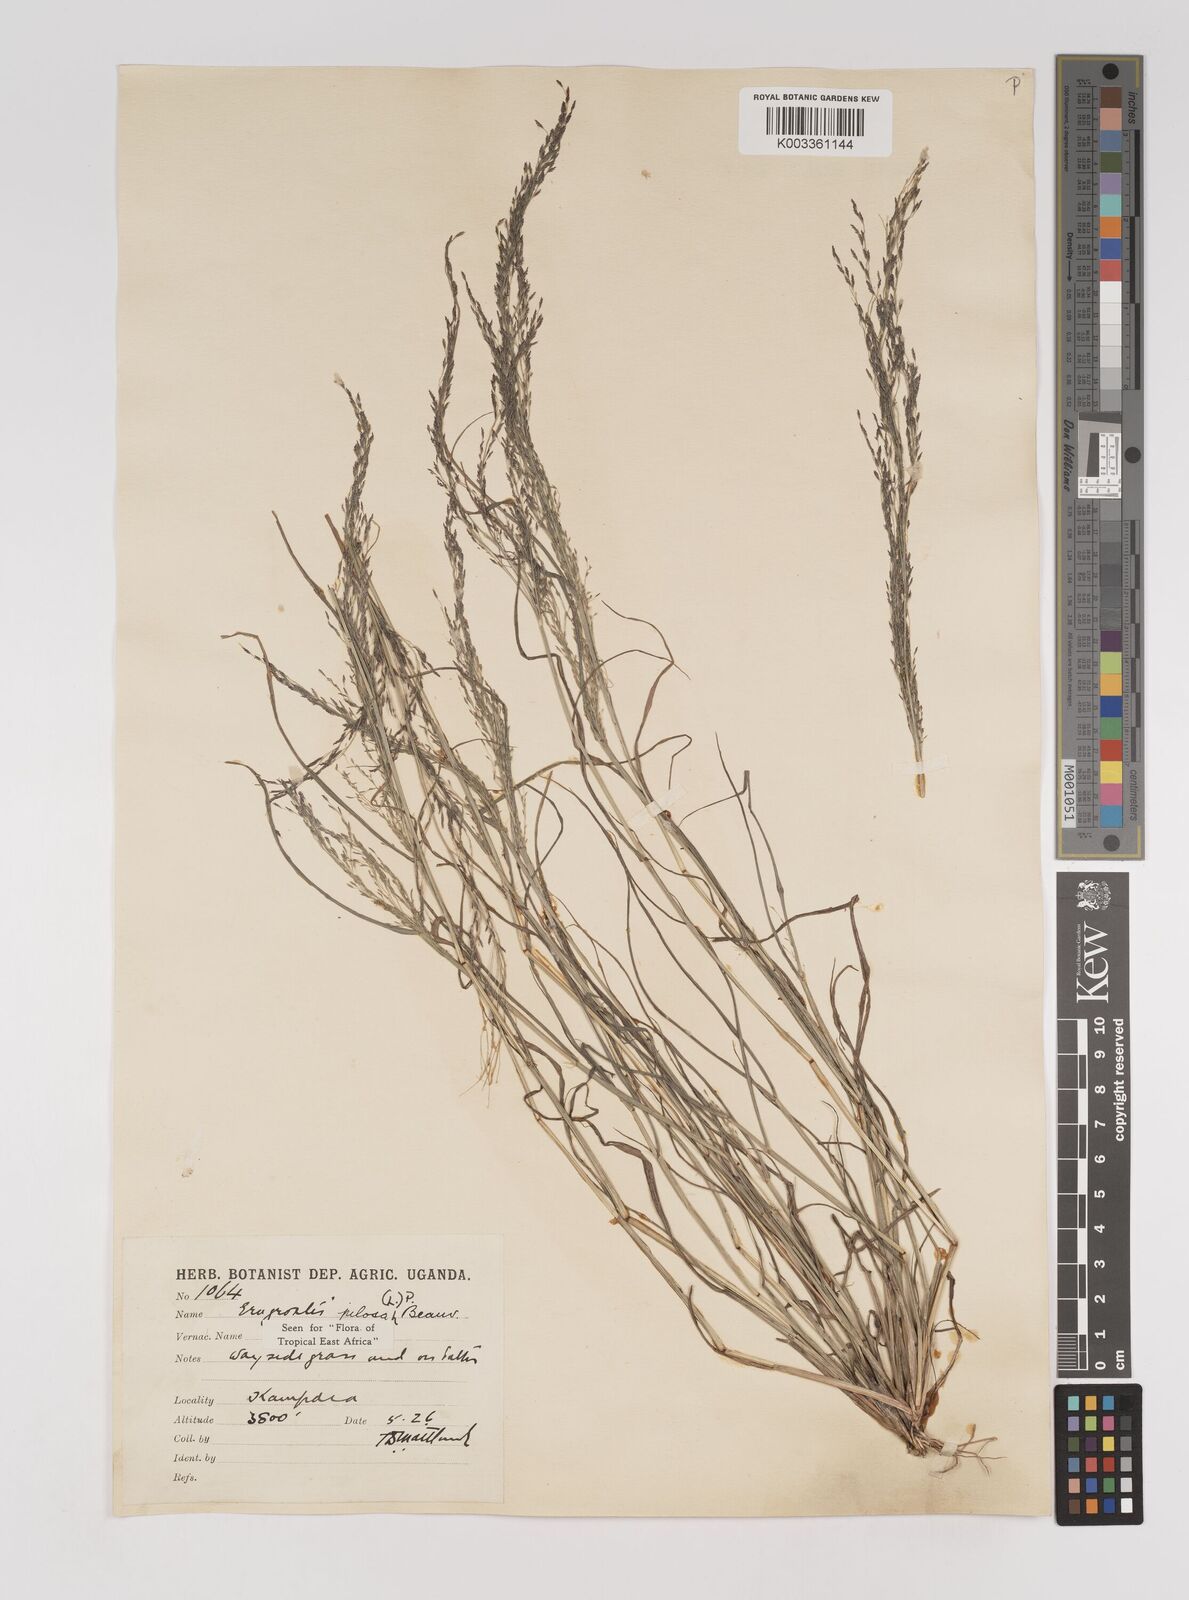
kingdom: Plantae
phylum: Tracheophyta
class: Liliopsida
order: Poales
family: Poaceae
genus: Eragrostis
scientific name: Eragrostis pilosa
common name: Indian lovegrass
